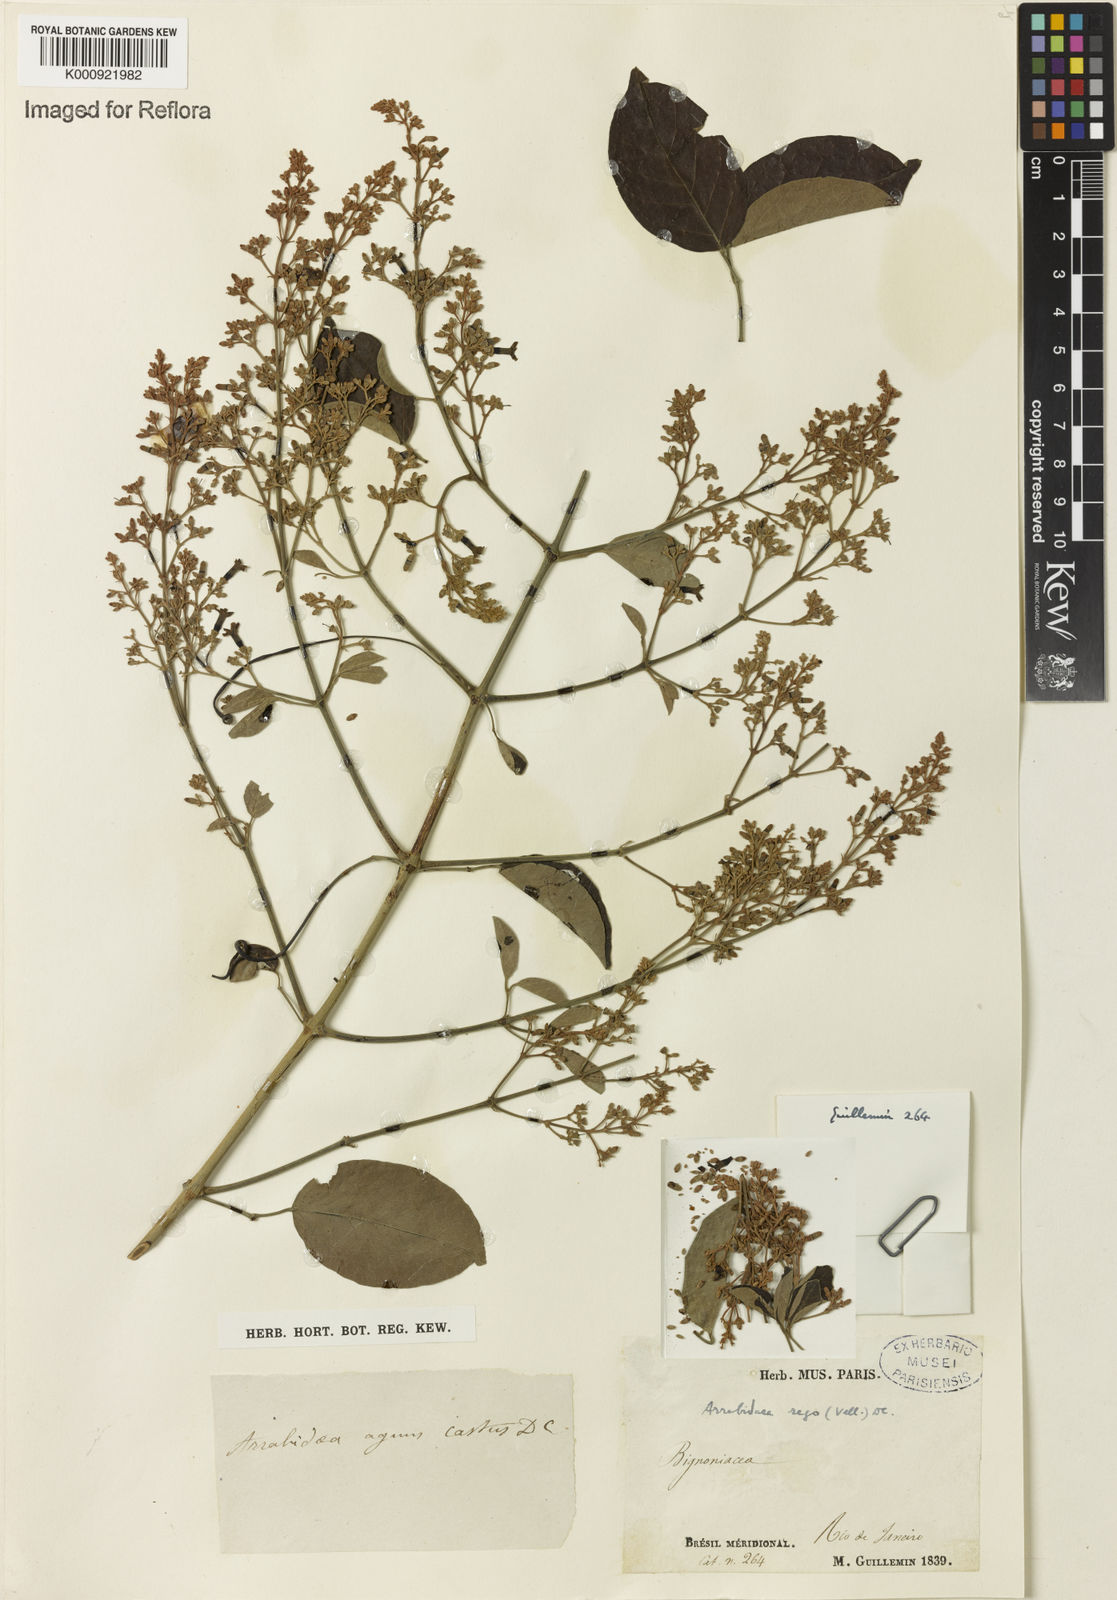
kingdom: Plantae
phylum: Tracheophyta
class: Magnoliopsida
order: Lamiales
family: Bignoniaceae
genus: Fridericia
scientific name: Fridericia rego
